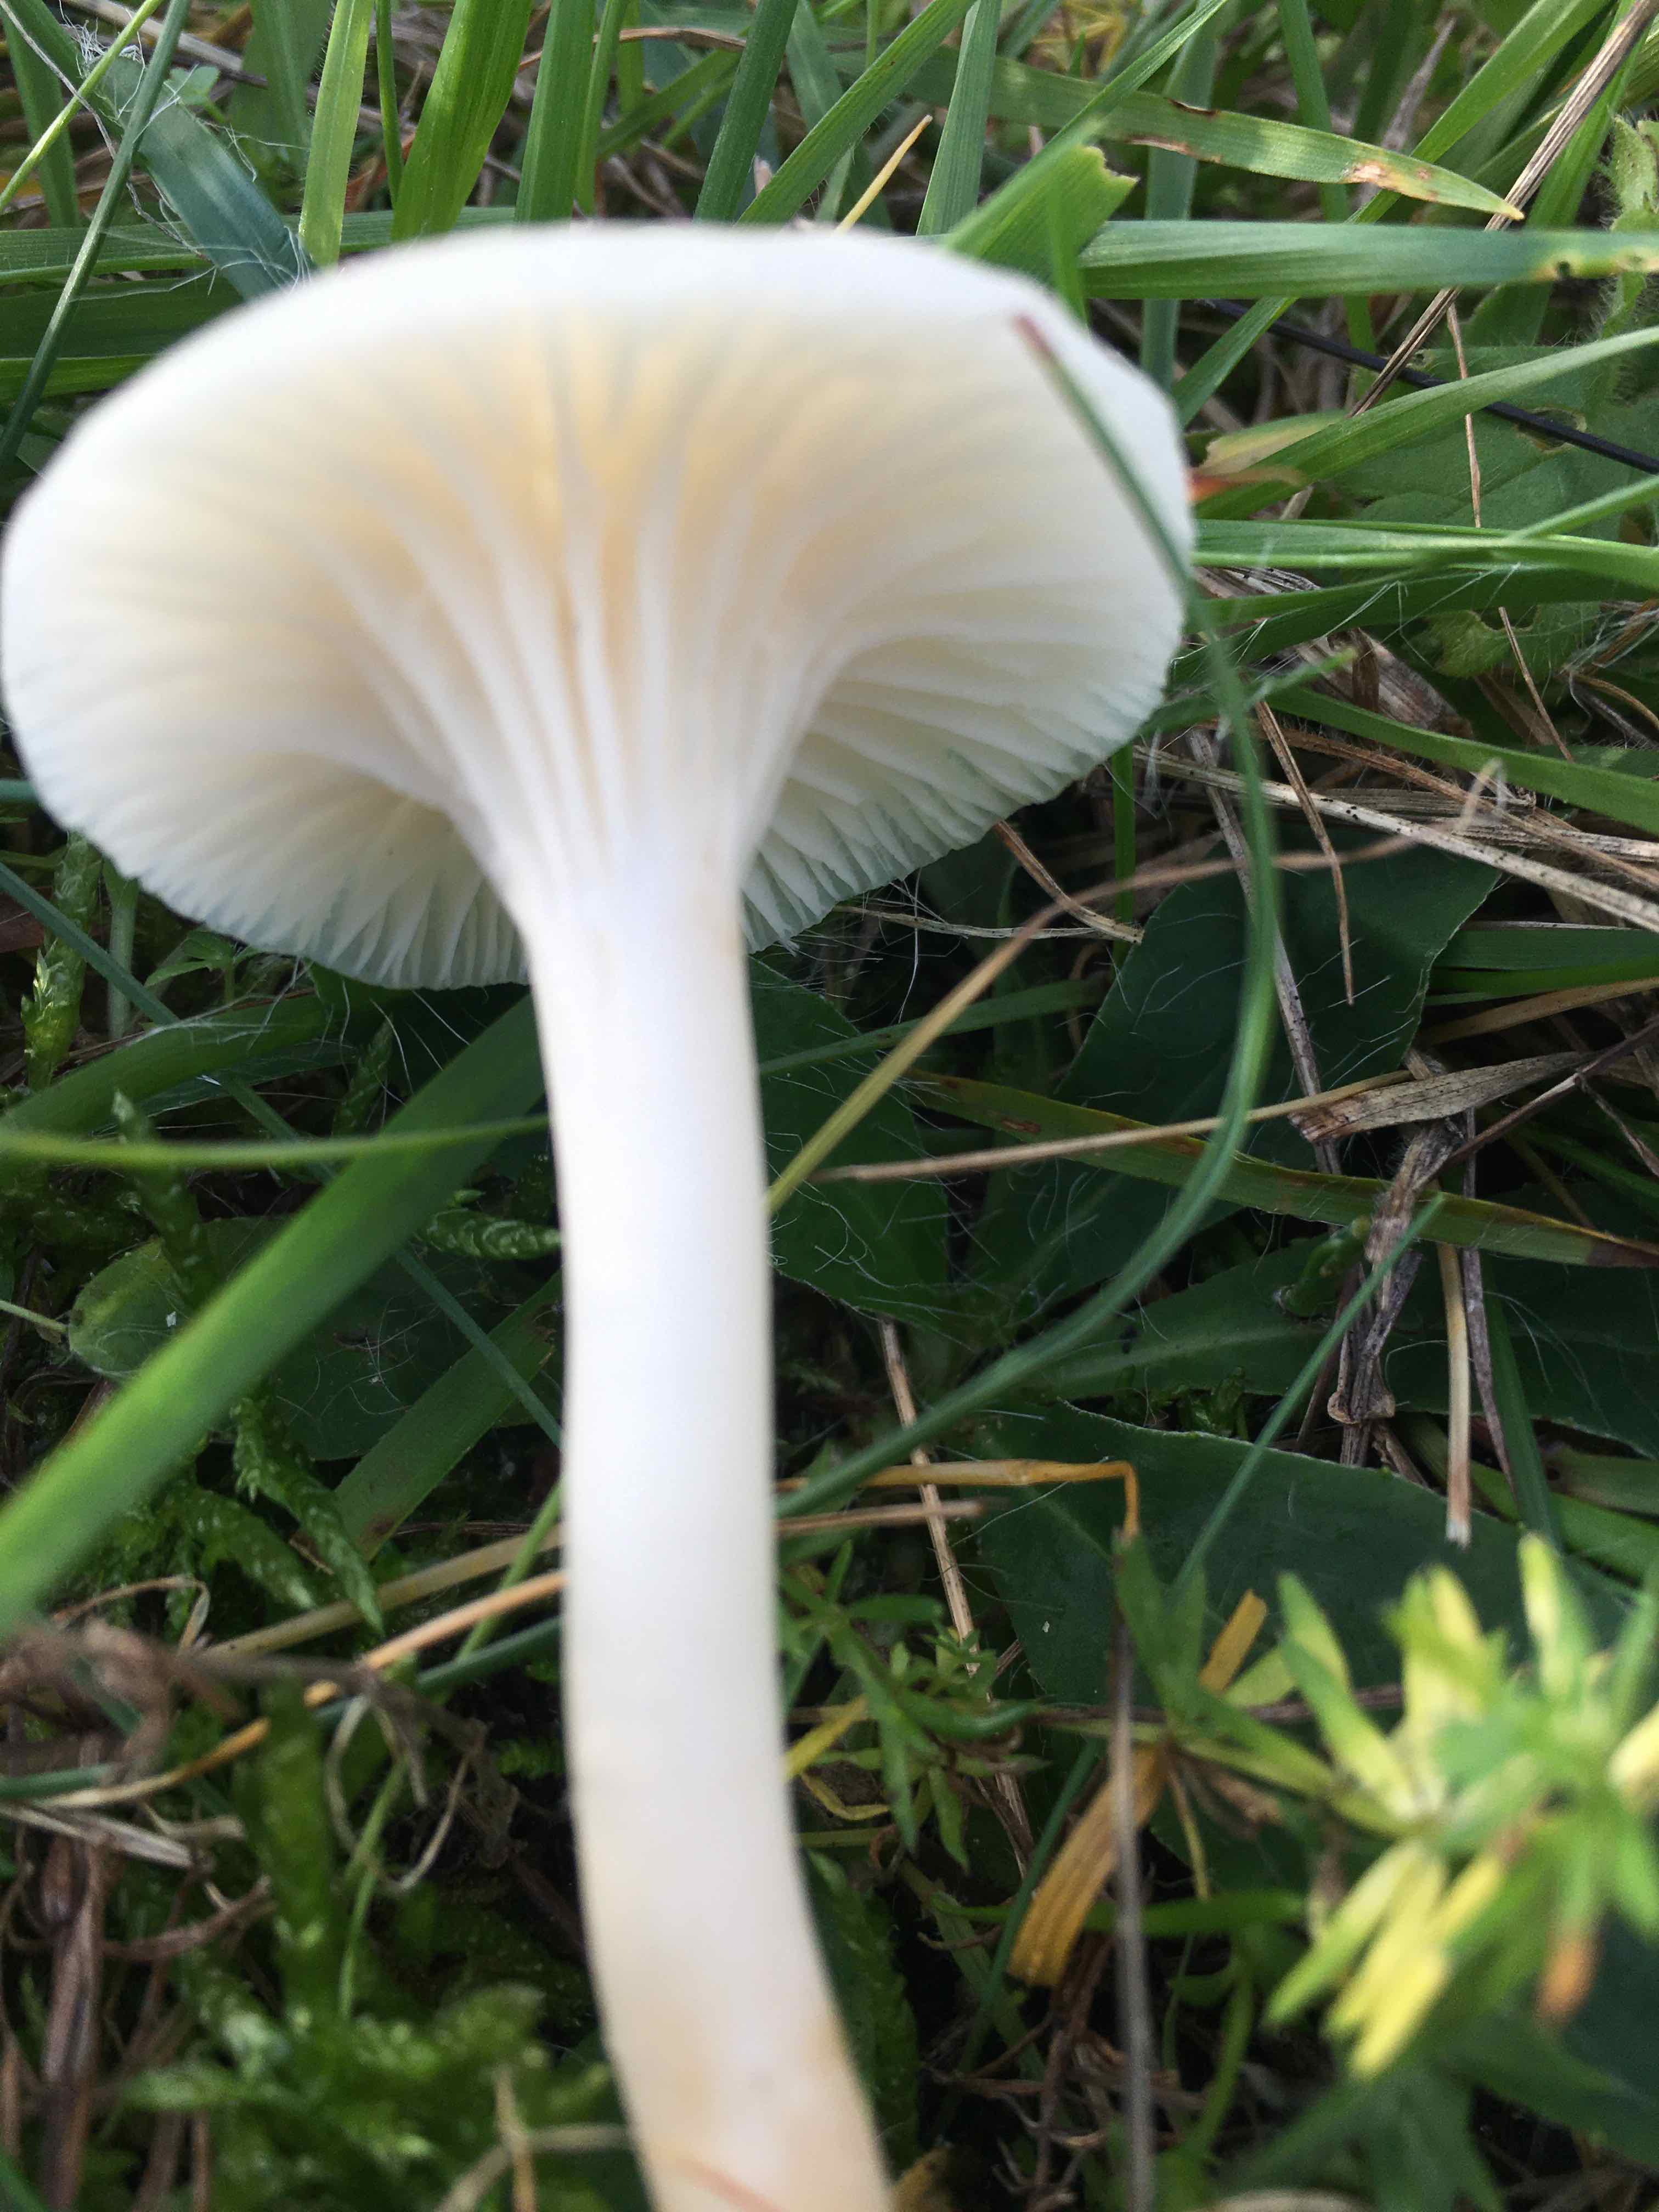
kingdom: Fungi
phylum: Basidiomycota
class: Agaricomycetes
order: Agaricales
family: Hygrophoraceae
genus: Cuphophyllus
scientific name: Cuphophyllus
